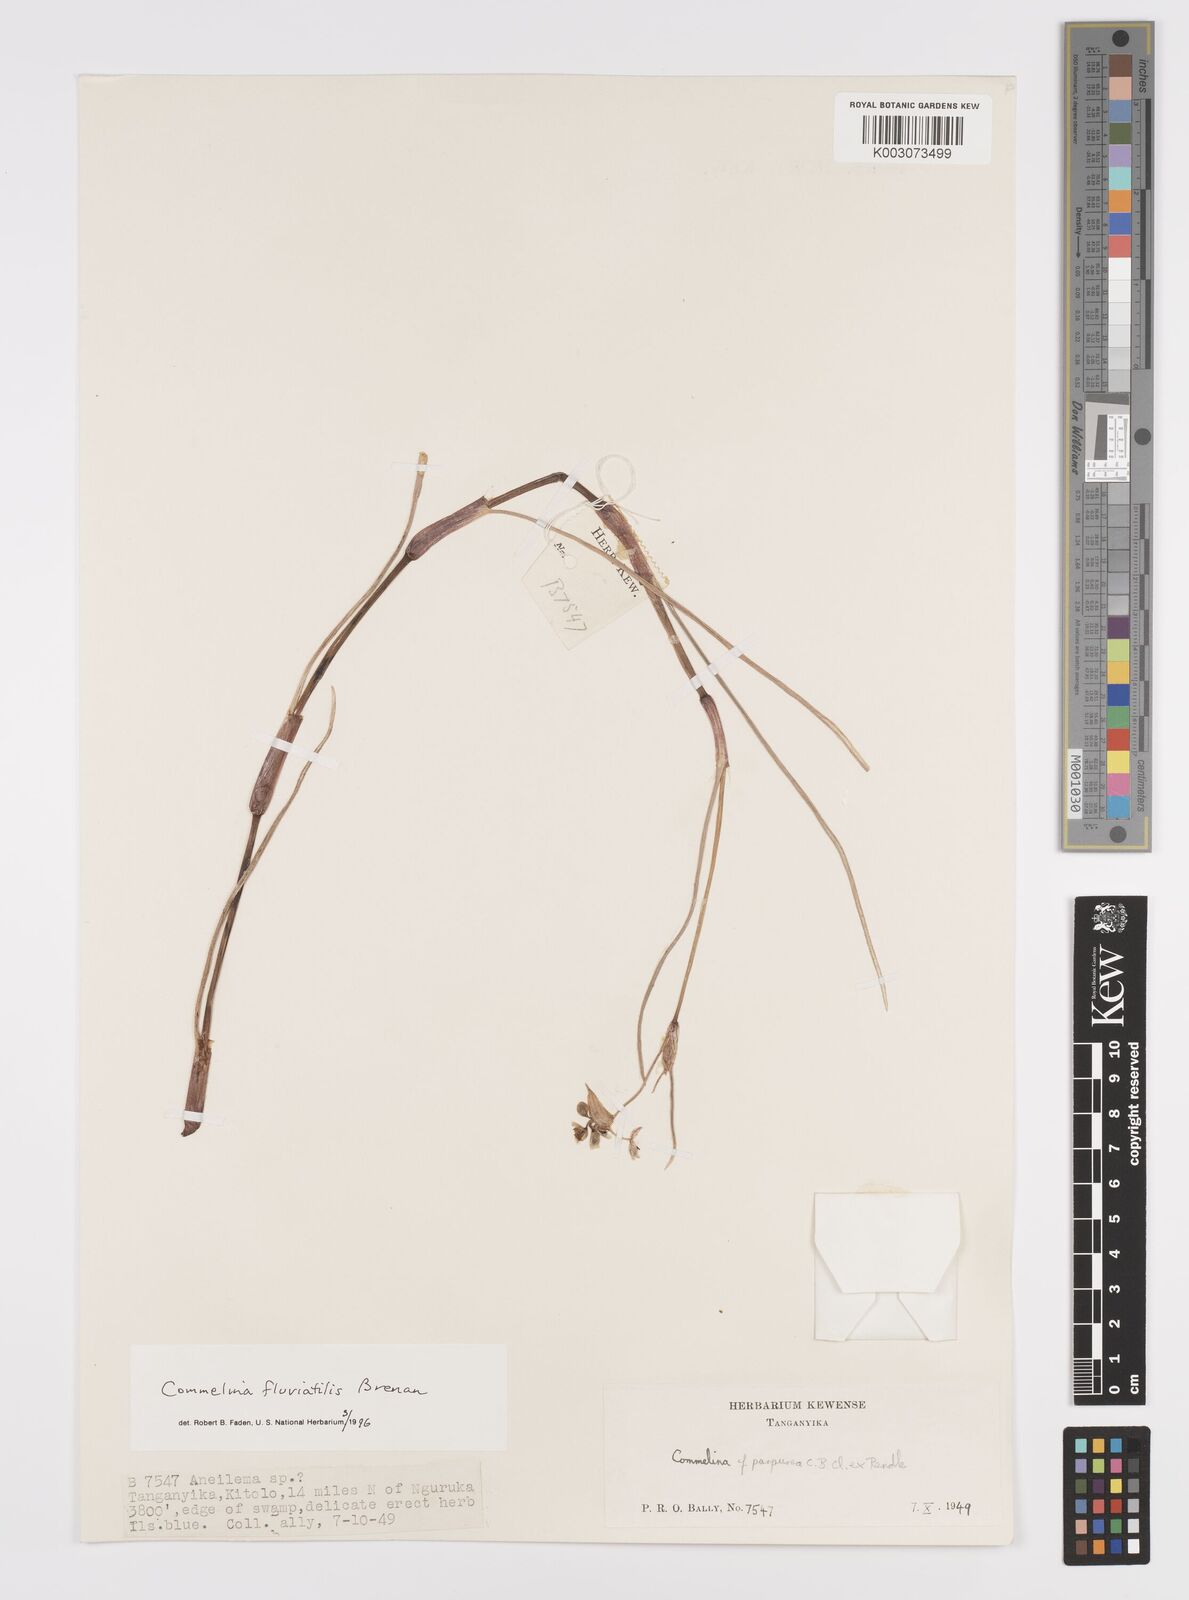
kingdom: Plantae
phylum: Tracheophyta
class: Liliopsida
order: Commelinales
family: Commelinaceae
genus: Commelina
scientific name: Commelina fluviatilis
